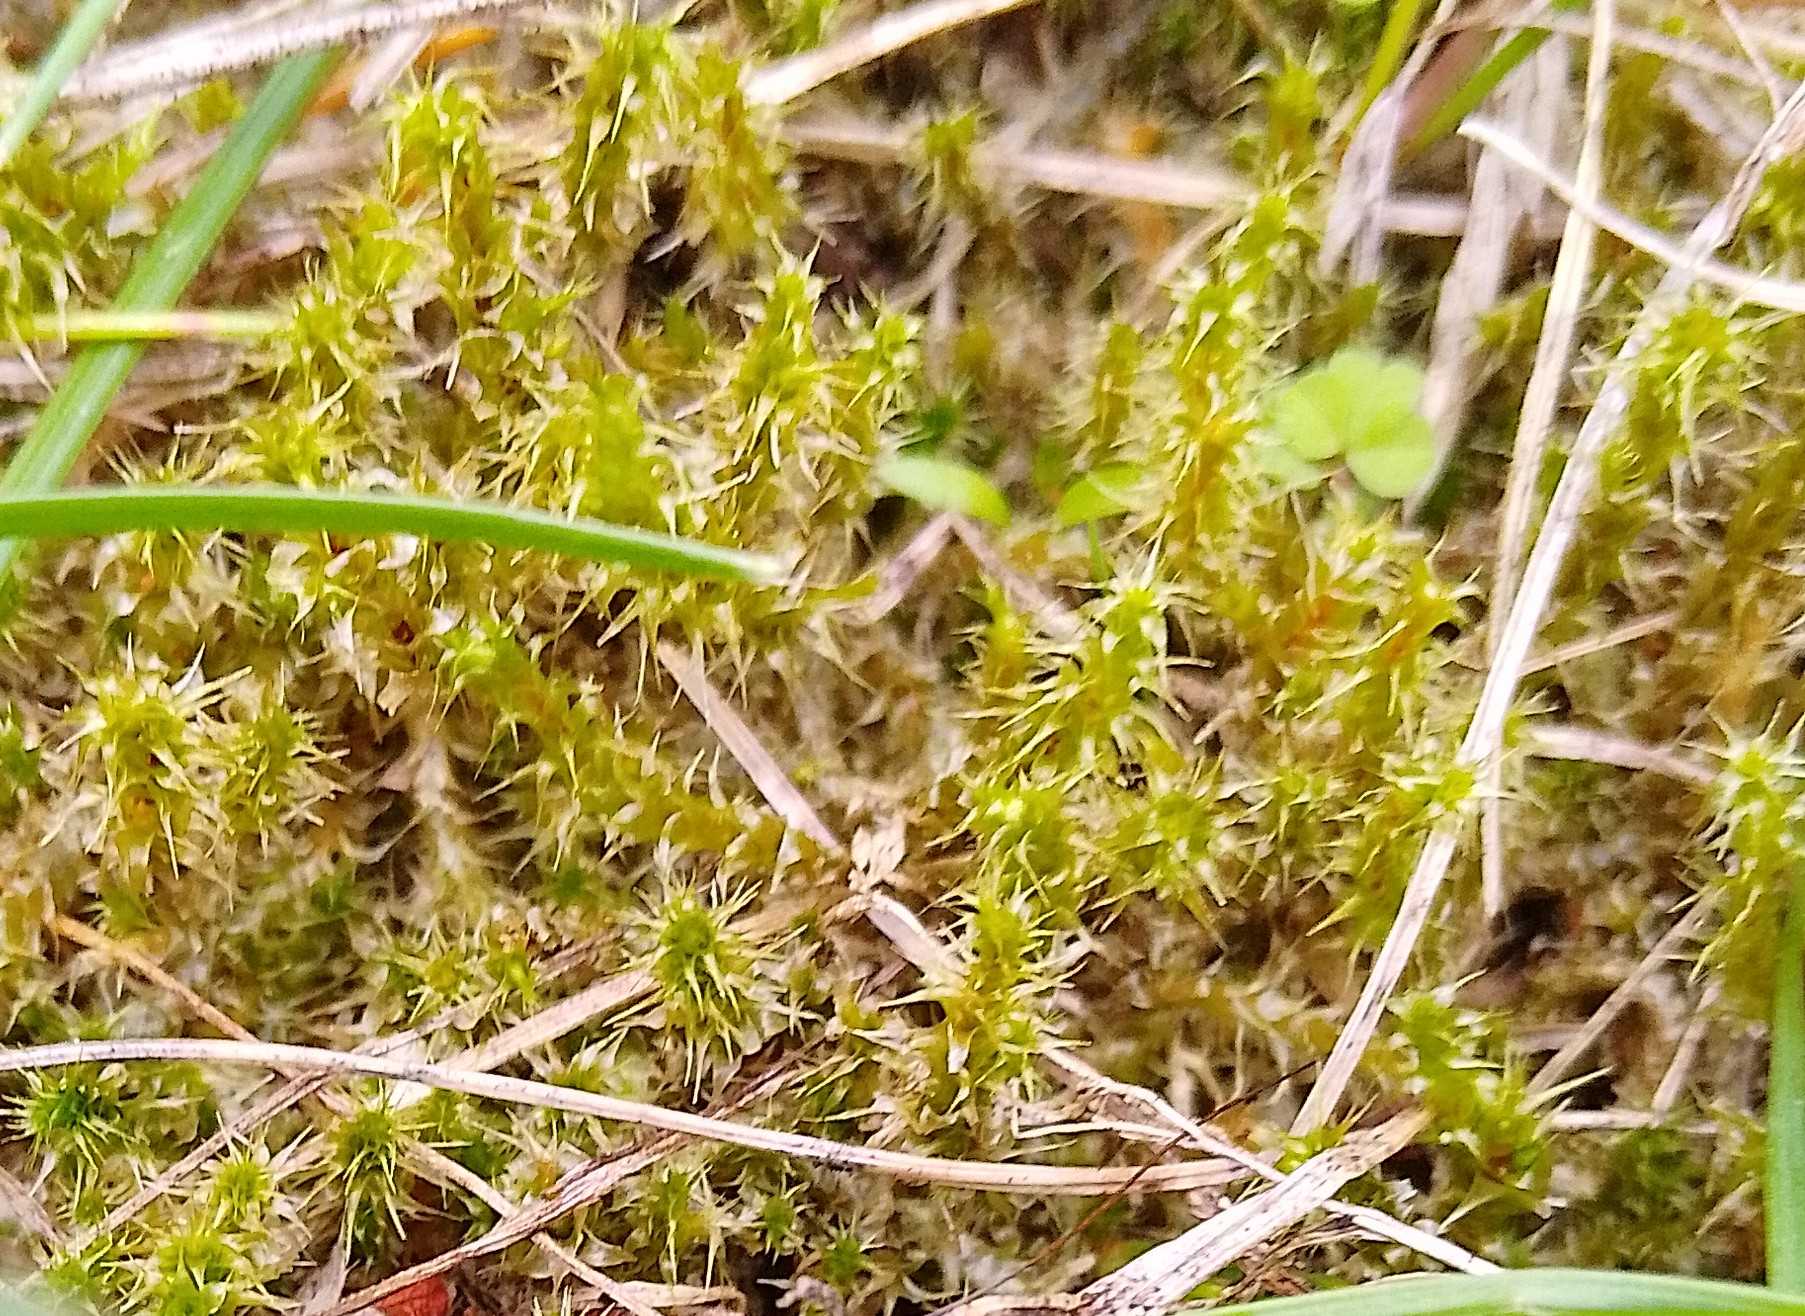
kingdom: Plantae
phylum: Bryophyta
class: Bryopsida
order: Hypnales
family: Hylocomiaceae
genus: Rhytidiadelphus
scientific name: Rhytidiadelphus squarrosus
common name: Plæne-kransemos
